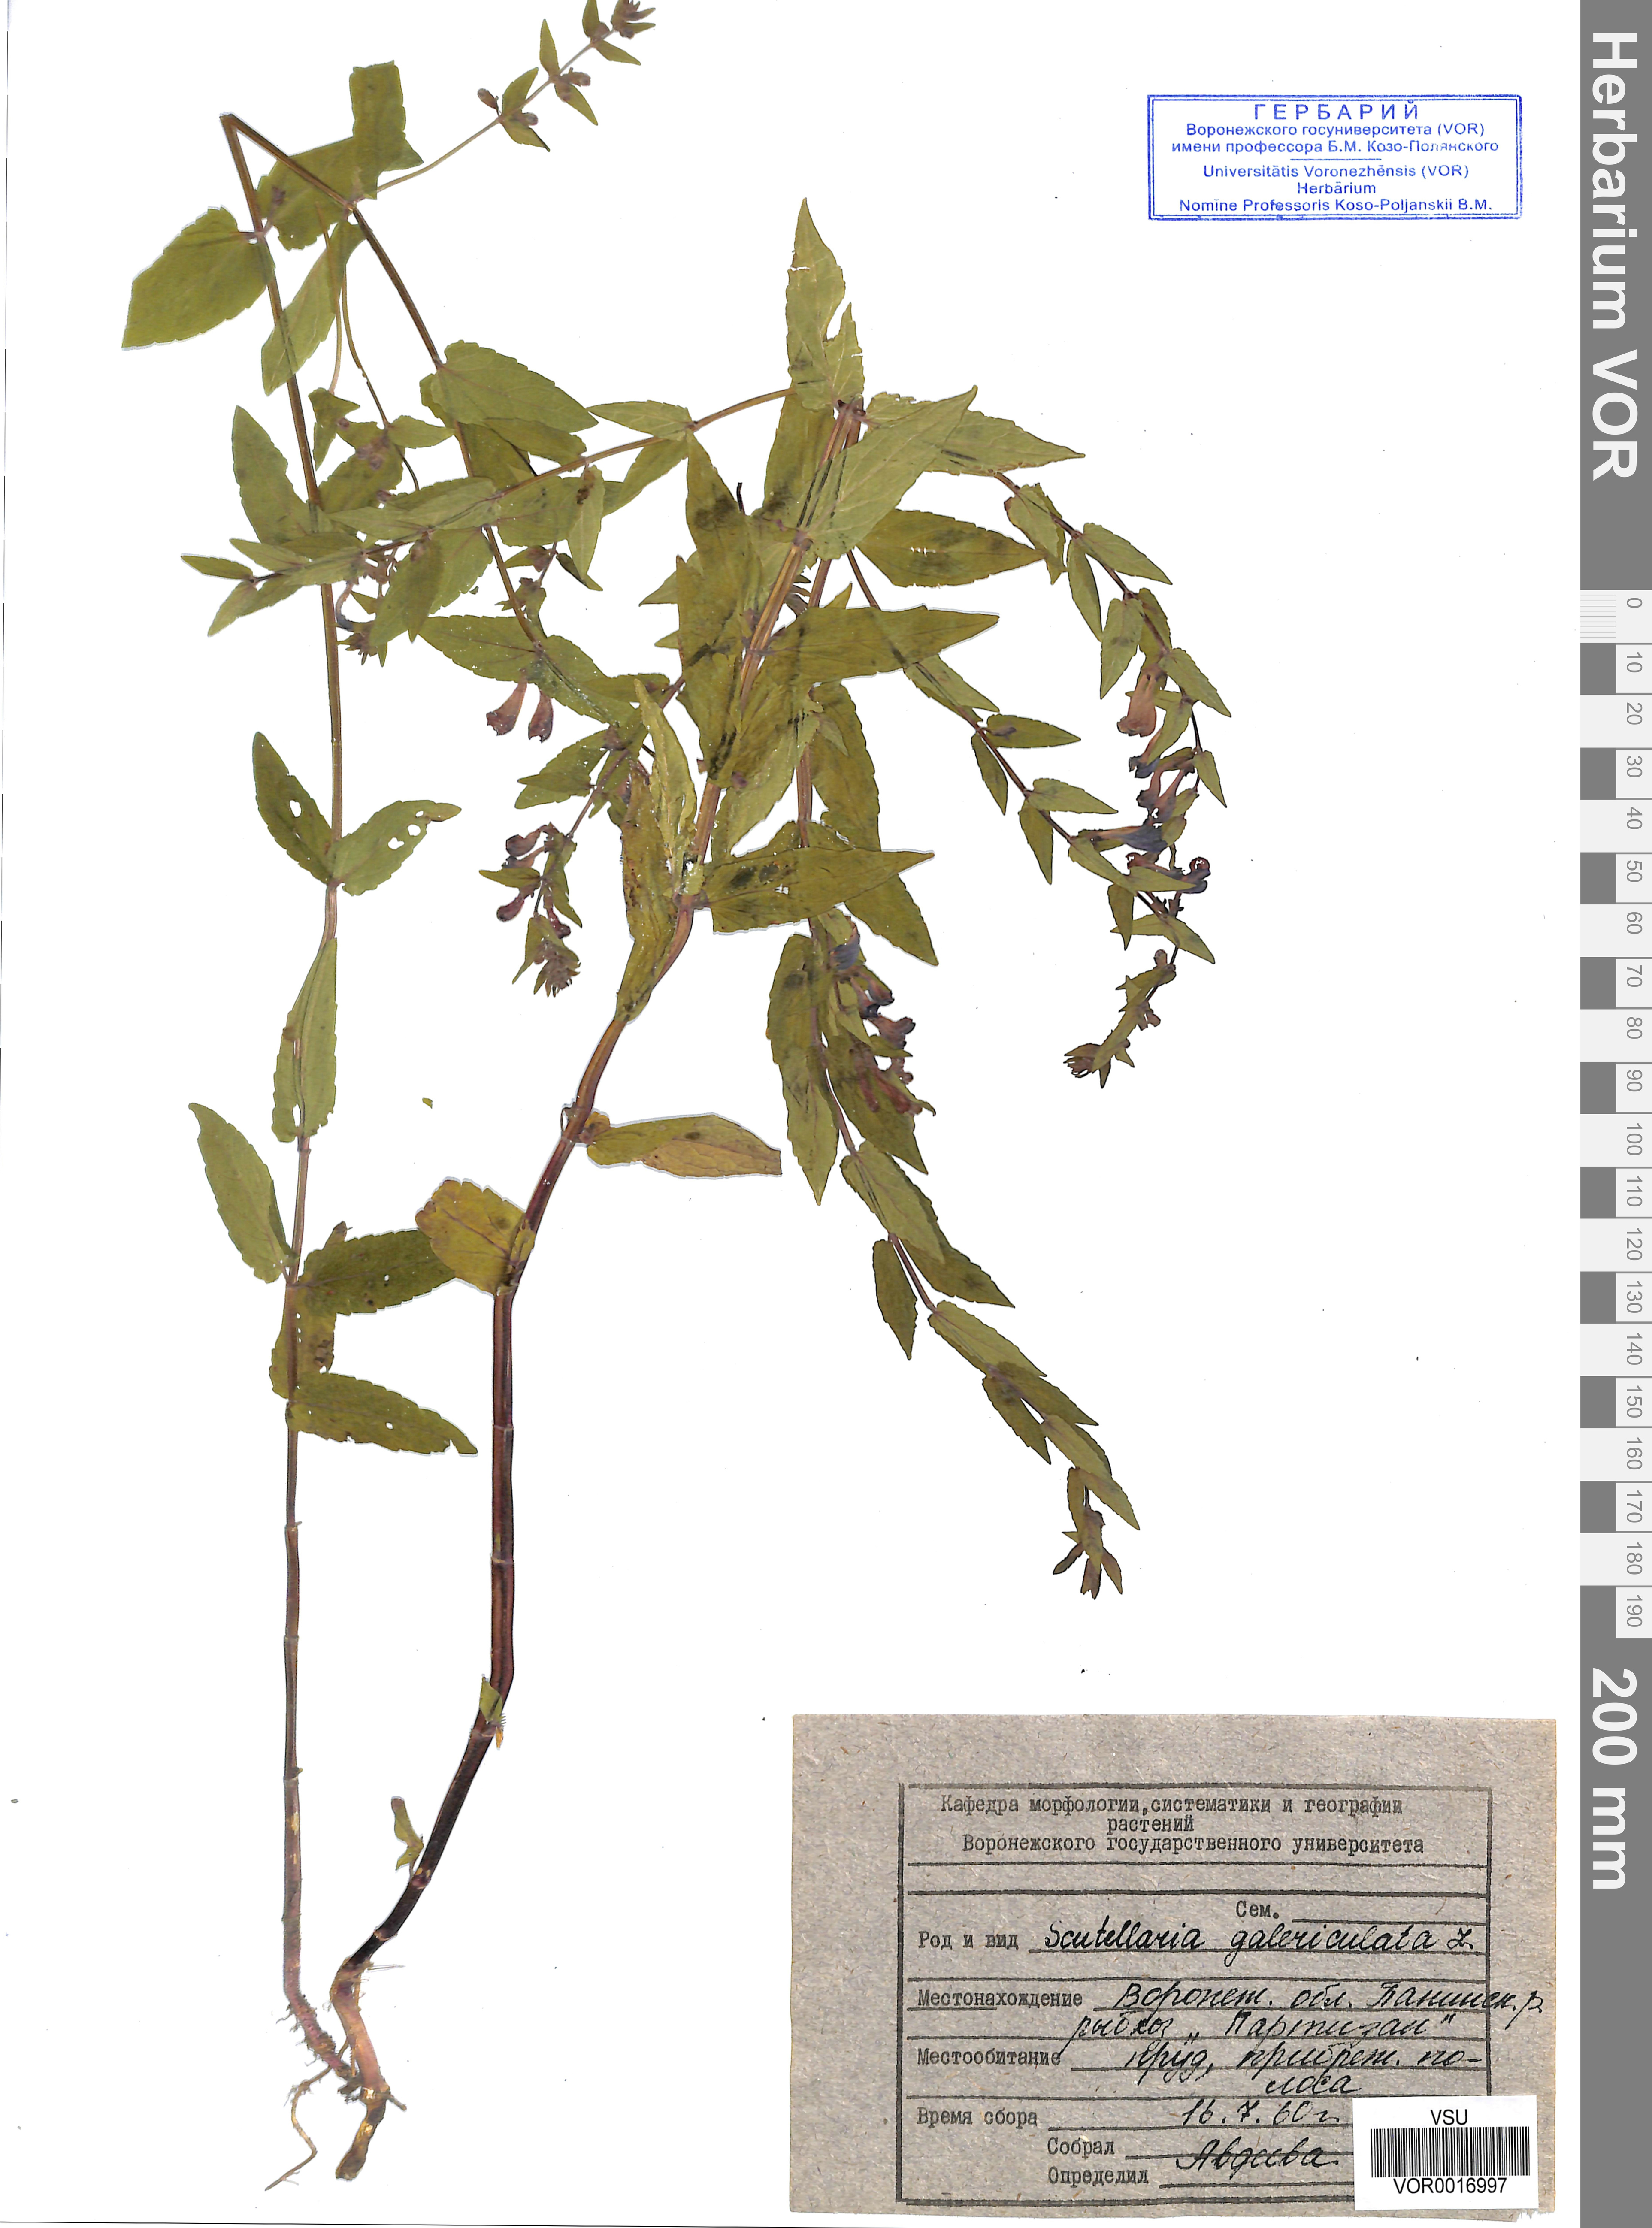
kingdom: Plantae
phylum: Tracheophyta
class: Magnoliopsida
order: Lamiales
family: Lamiaceae
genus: Scutellaria
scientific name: Scutellaria galericulata
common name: Skullcap
